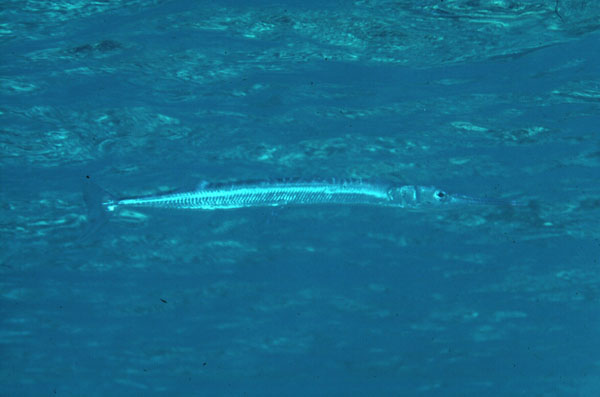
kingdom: Animalia
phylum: Chordata
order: Beloniformes
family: Belonidae
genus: Tylosurus
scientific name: Tylosurus
